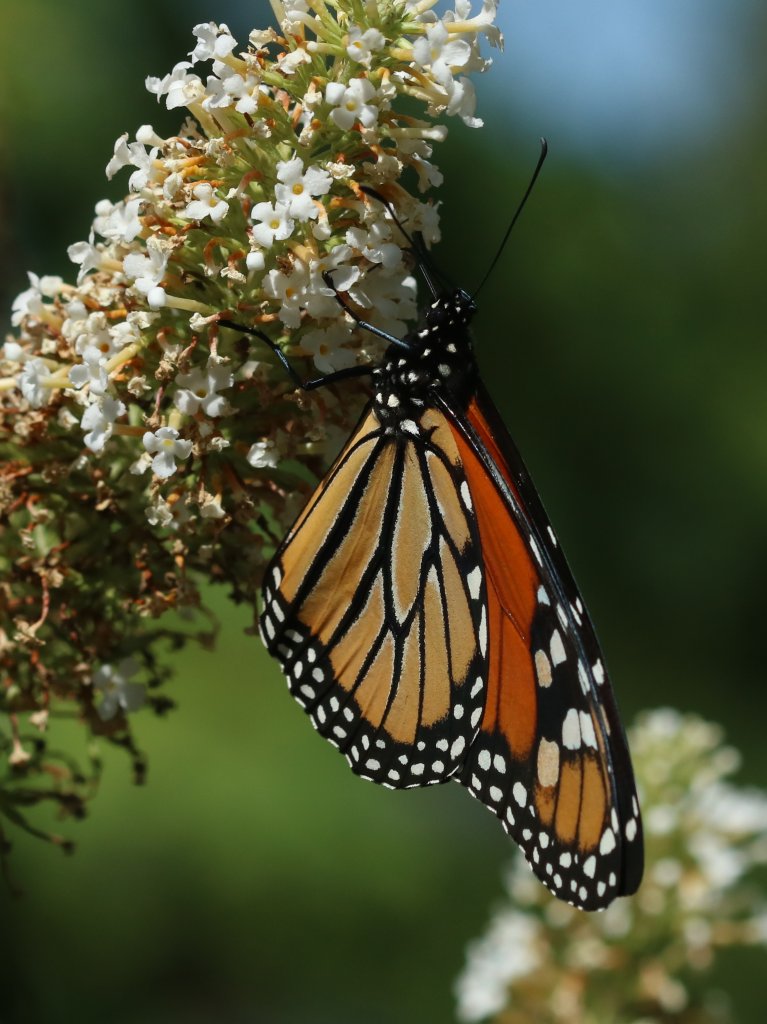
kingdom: Animalia
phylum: Arthropoda
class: Insecta
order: Lepidoptera
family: Nymphalidae
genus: Danaus
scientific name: Danaus plexippus
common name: Monarch
